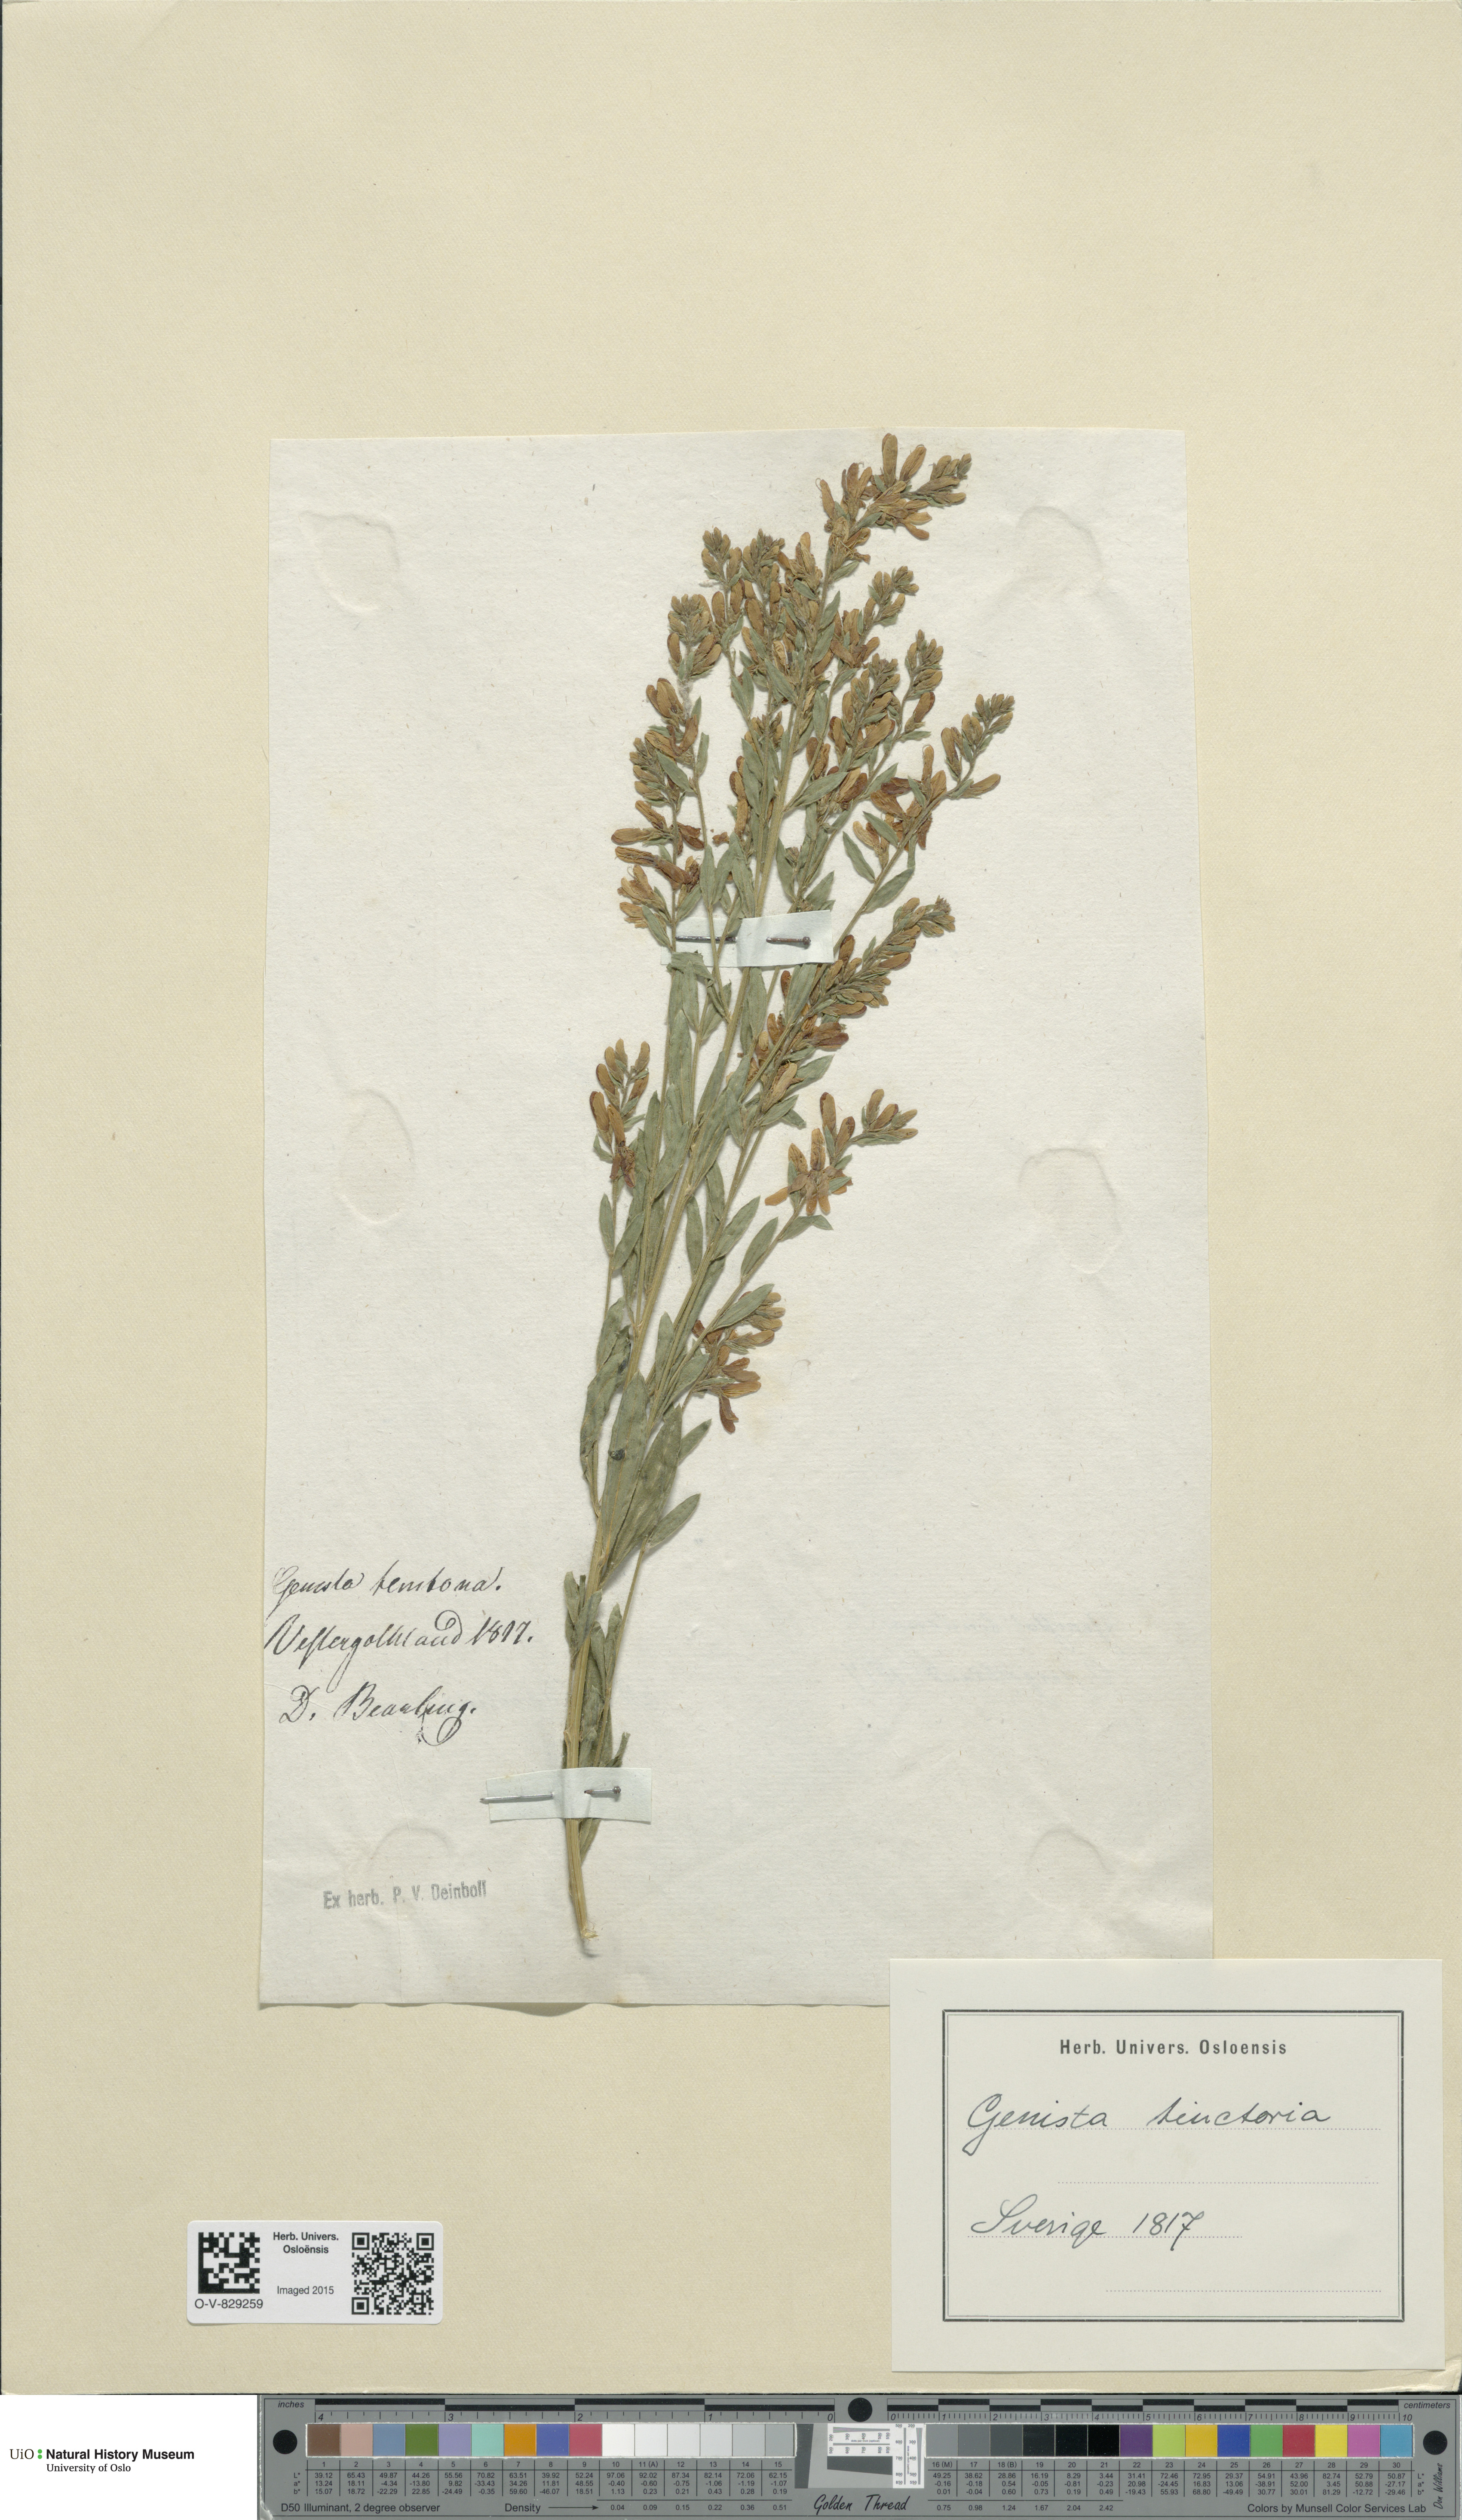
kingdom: Plantae
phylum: Tracheophyta
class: Magnoliopsida
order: Fabales
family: Fabaceae
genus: Genista
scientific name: Genista tinctoria
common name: Dyer's greenweed
